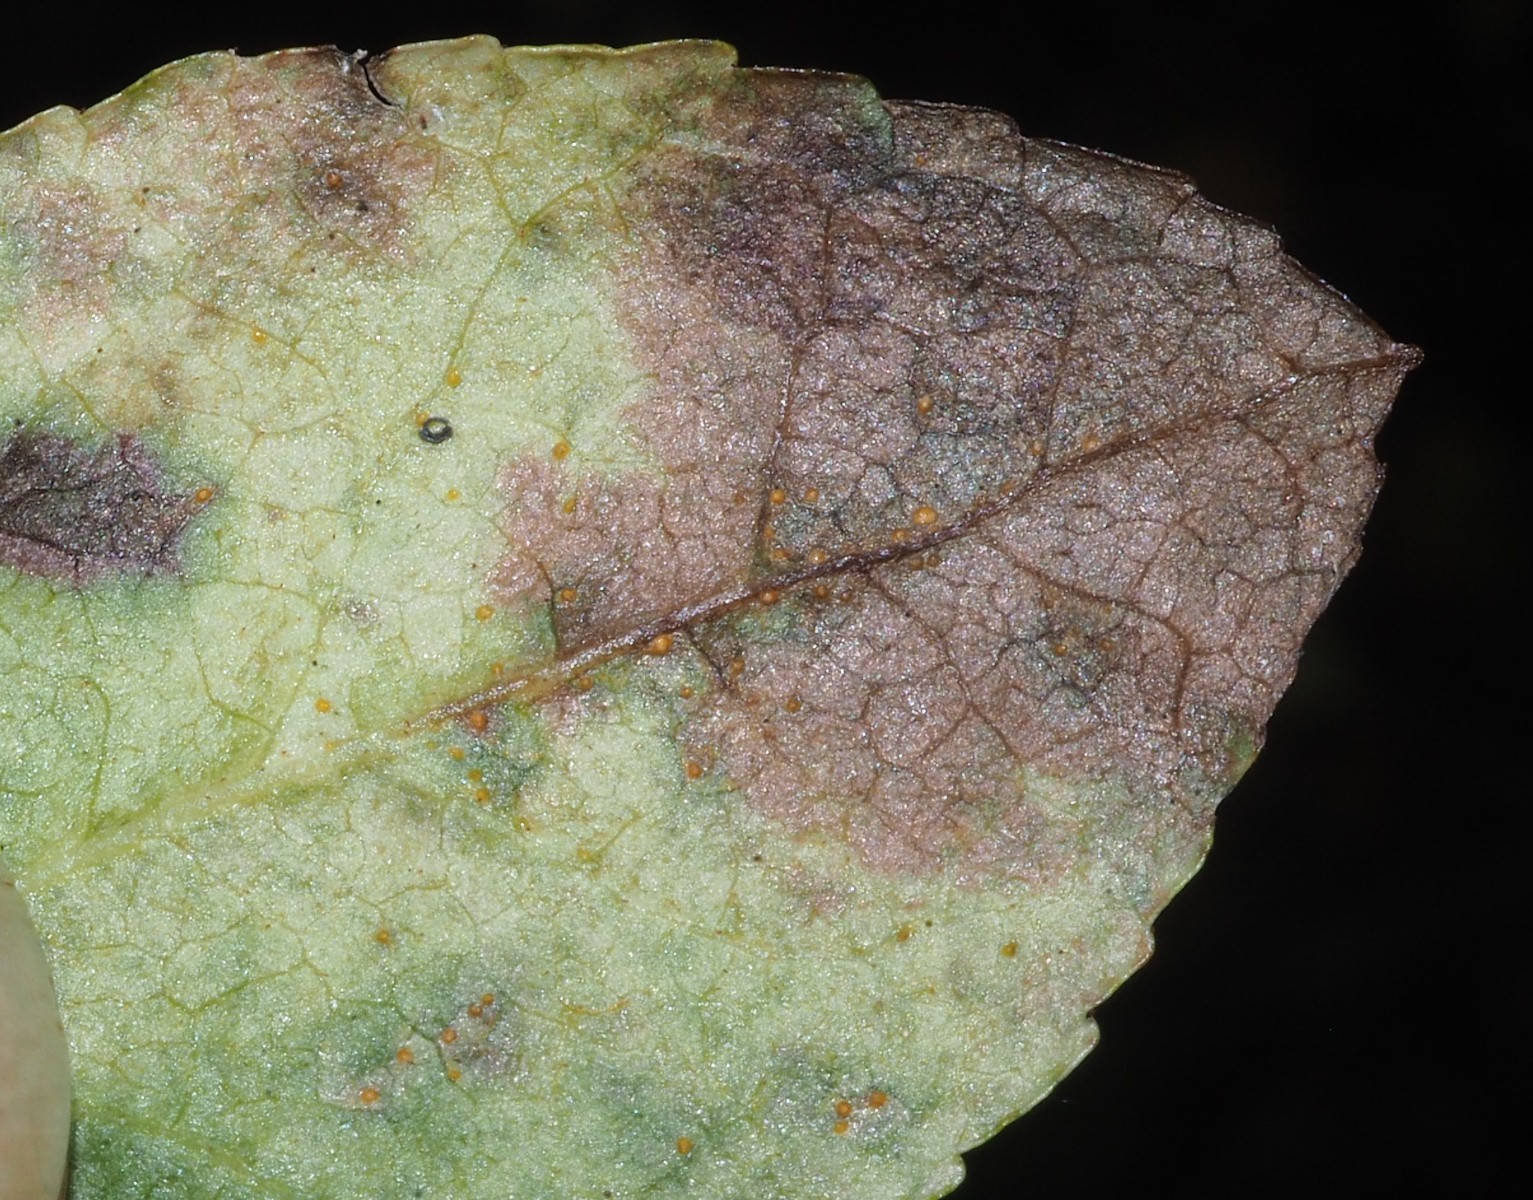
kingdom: Fungi
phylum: Basidiomycota
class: Pucciniomycetes
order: Pucciniales
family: Pucciniastraceae
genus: Naohidemyces
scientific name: Naohidemyces vaccinii
